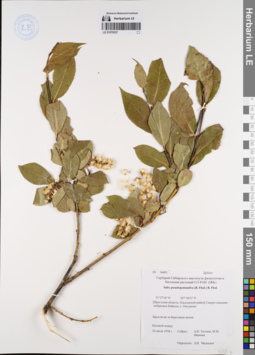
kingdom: Plantae
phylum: Tracheophyta
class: Magnoliopsida
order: Malpighiales
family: Salicaceae
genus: Salix
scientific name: Salix pseudopentandra
